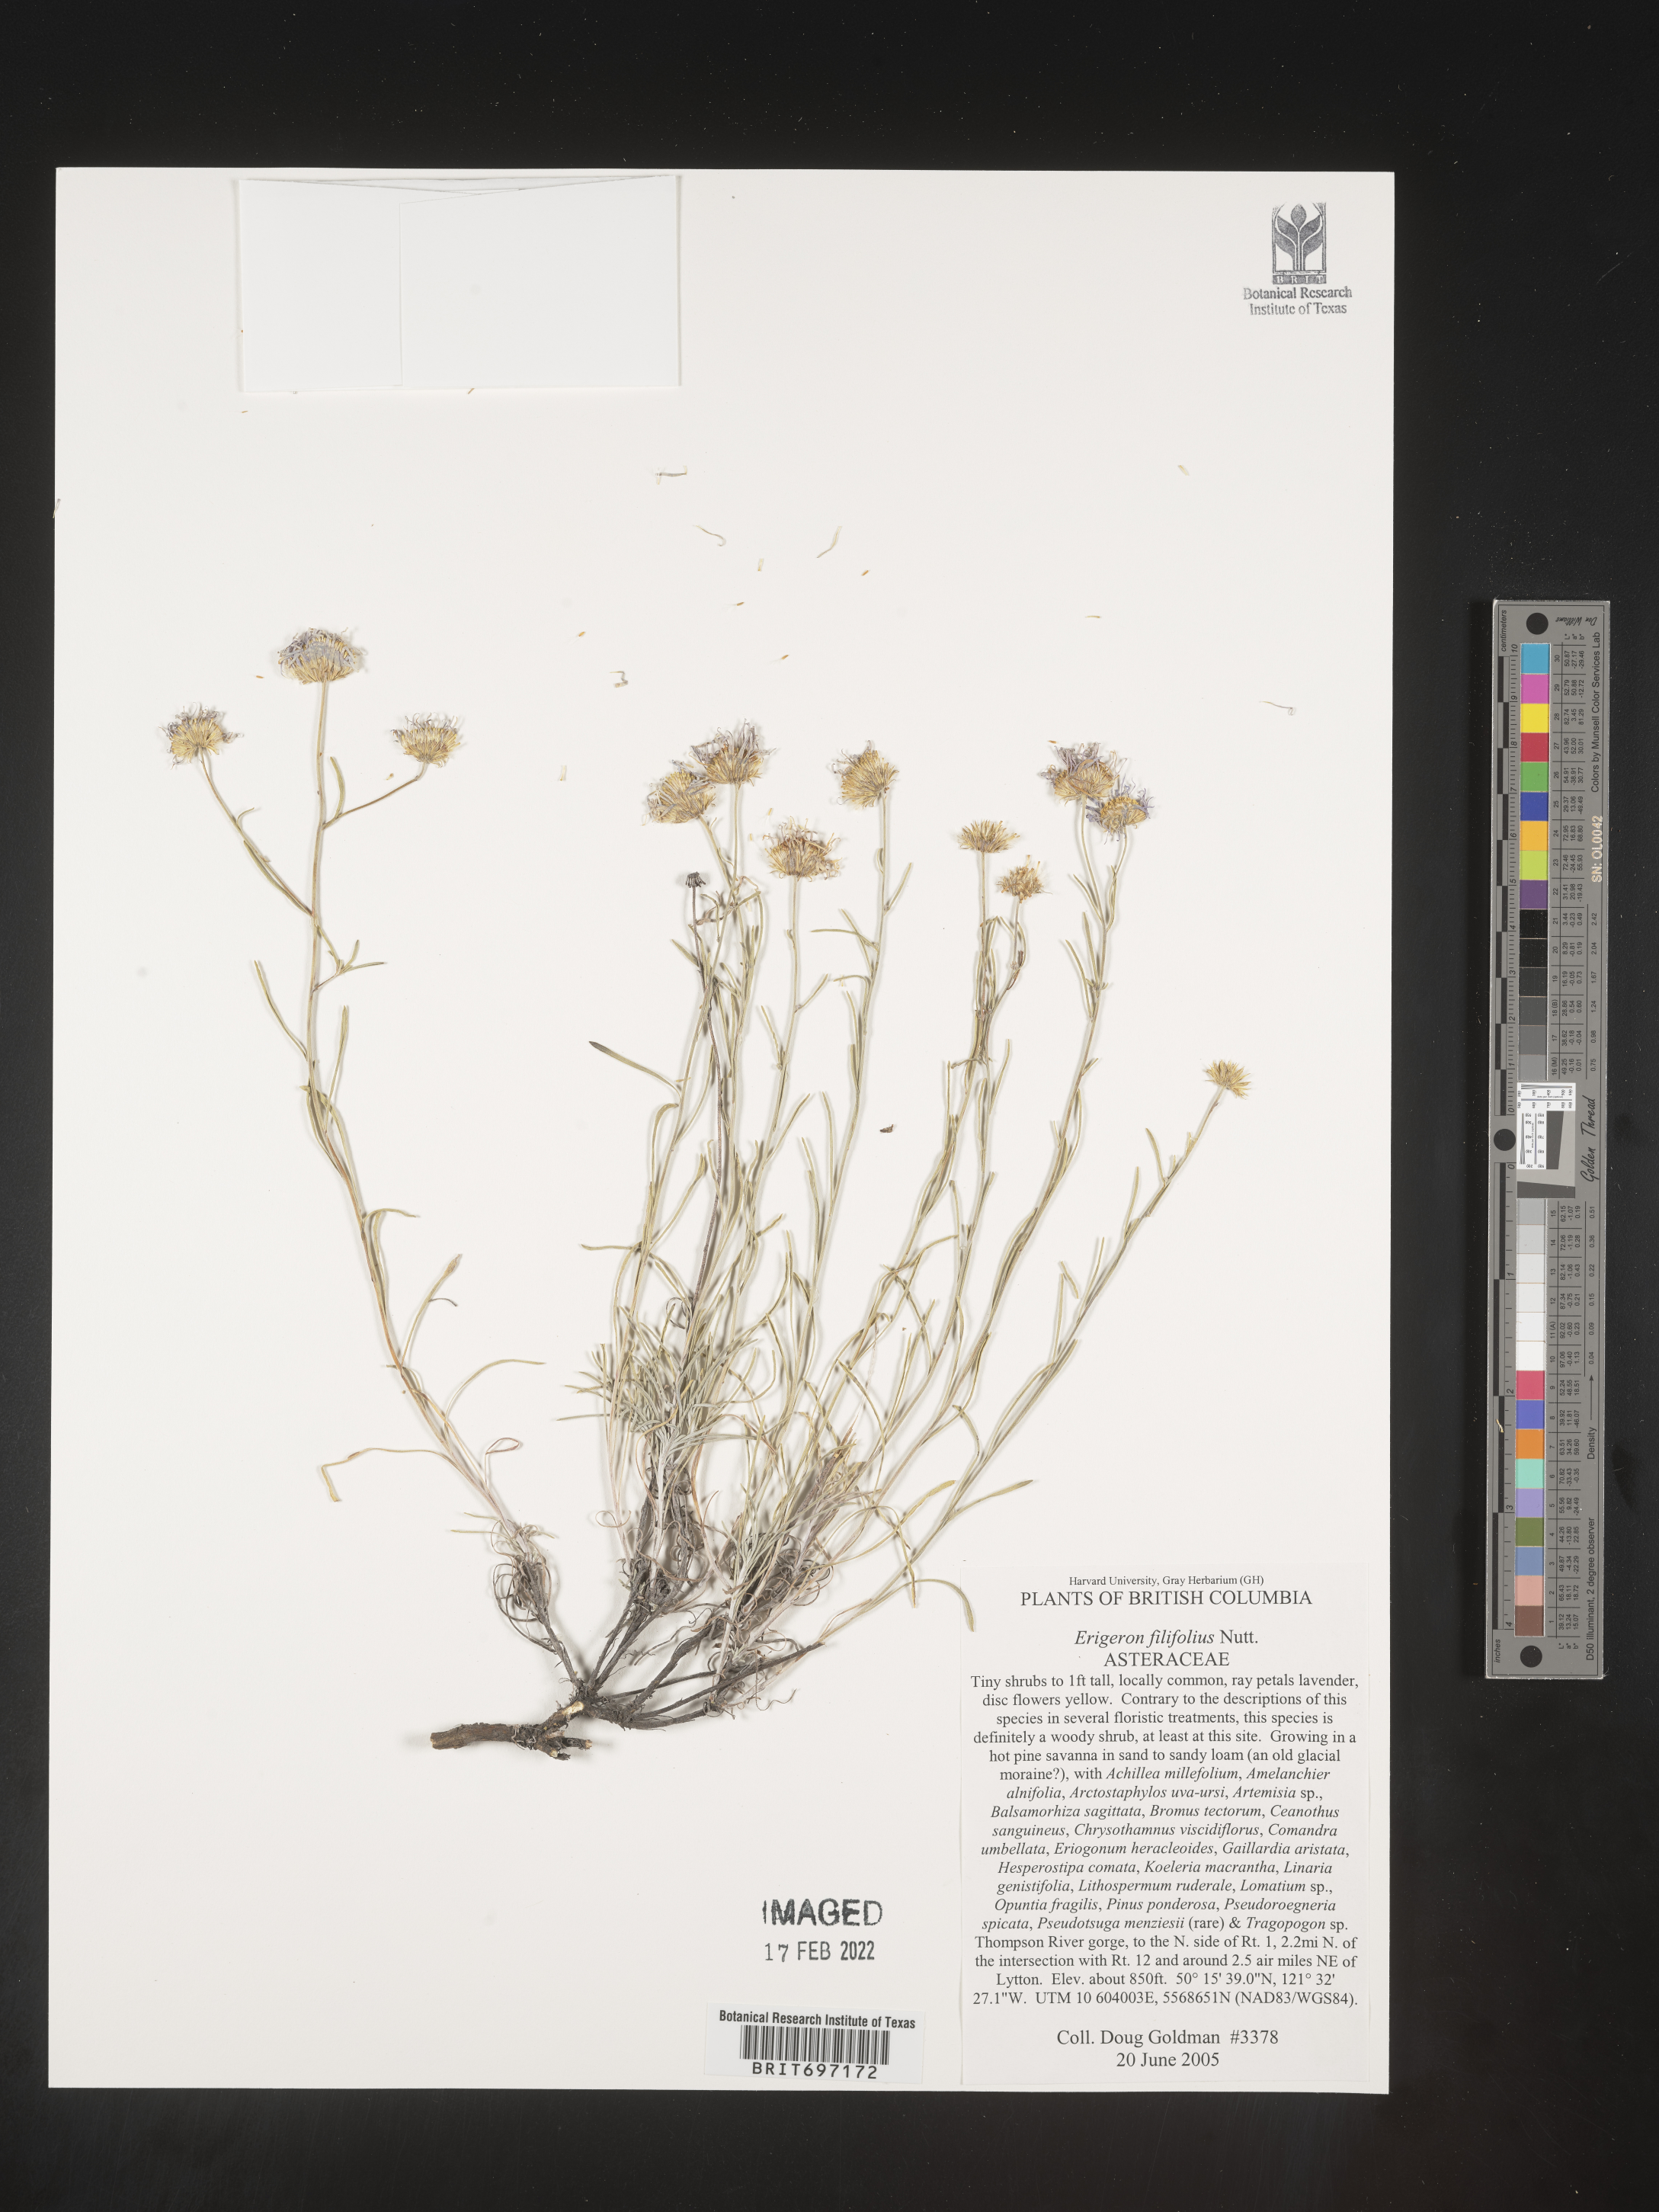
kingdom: Plantae
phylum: Tracheophyta
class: Magnoliopsida
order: Asterales
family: Asteraceae
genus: Erigeron
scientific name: Erigeron filifolius
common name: Threadleaf fleabane
